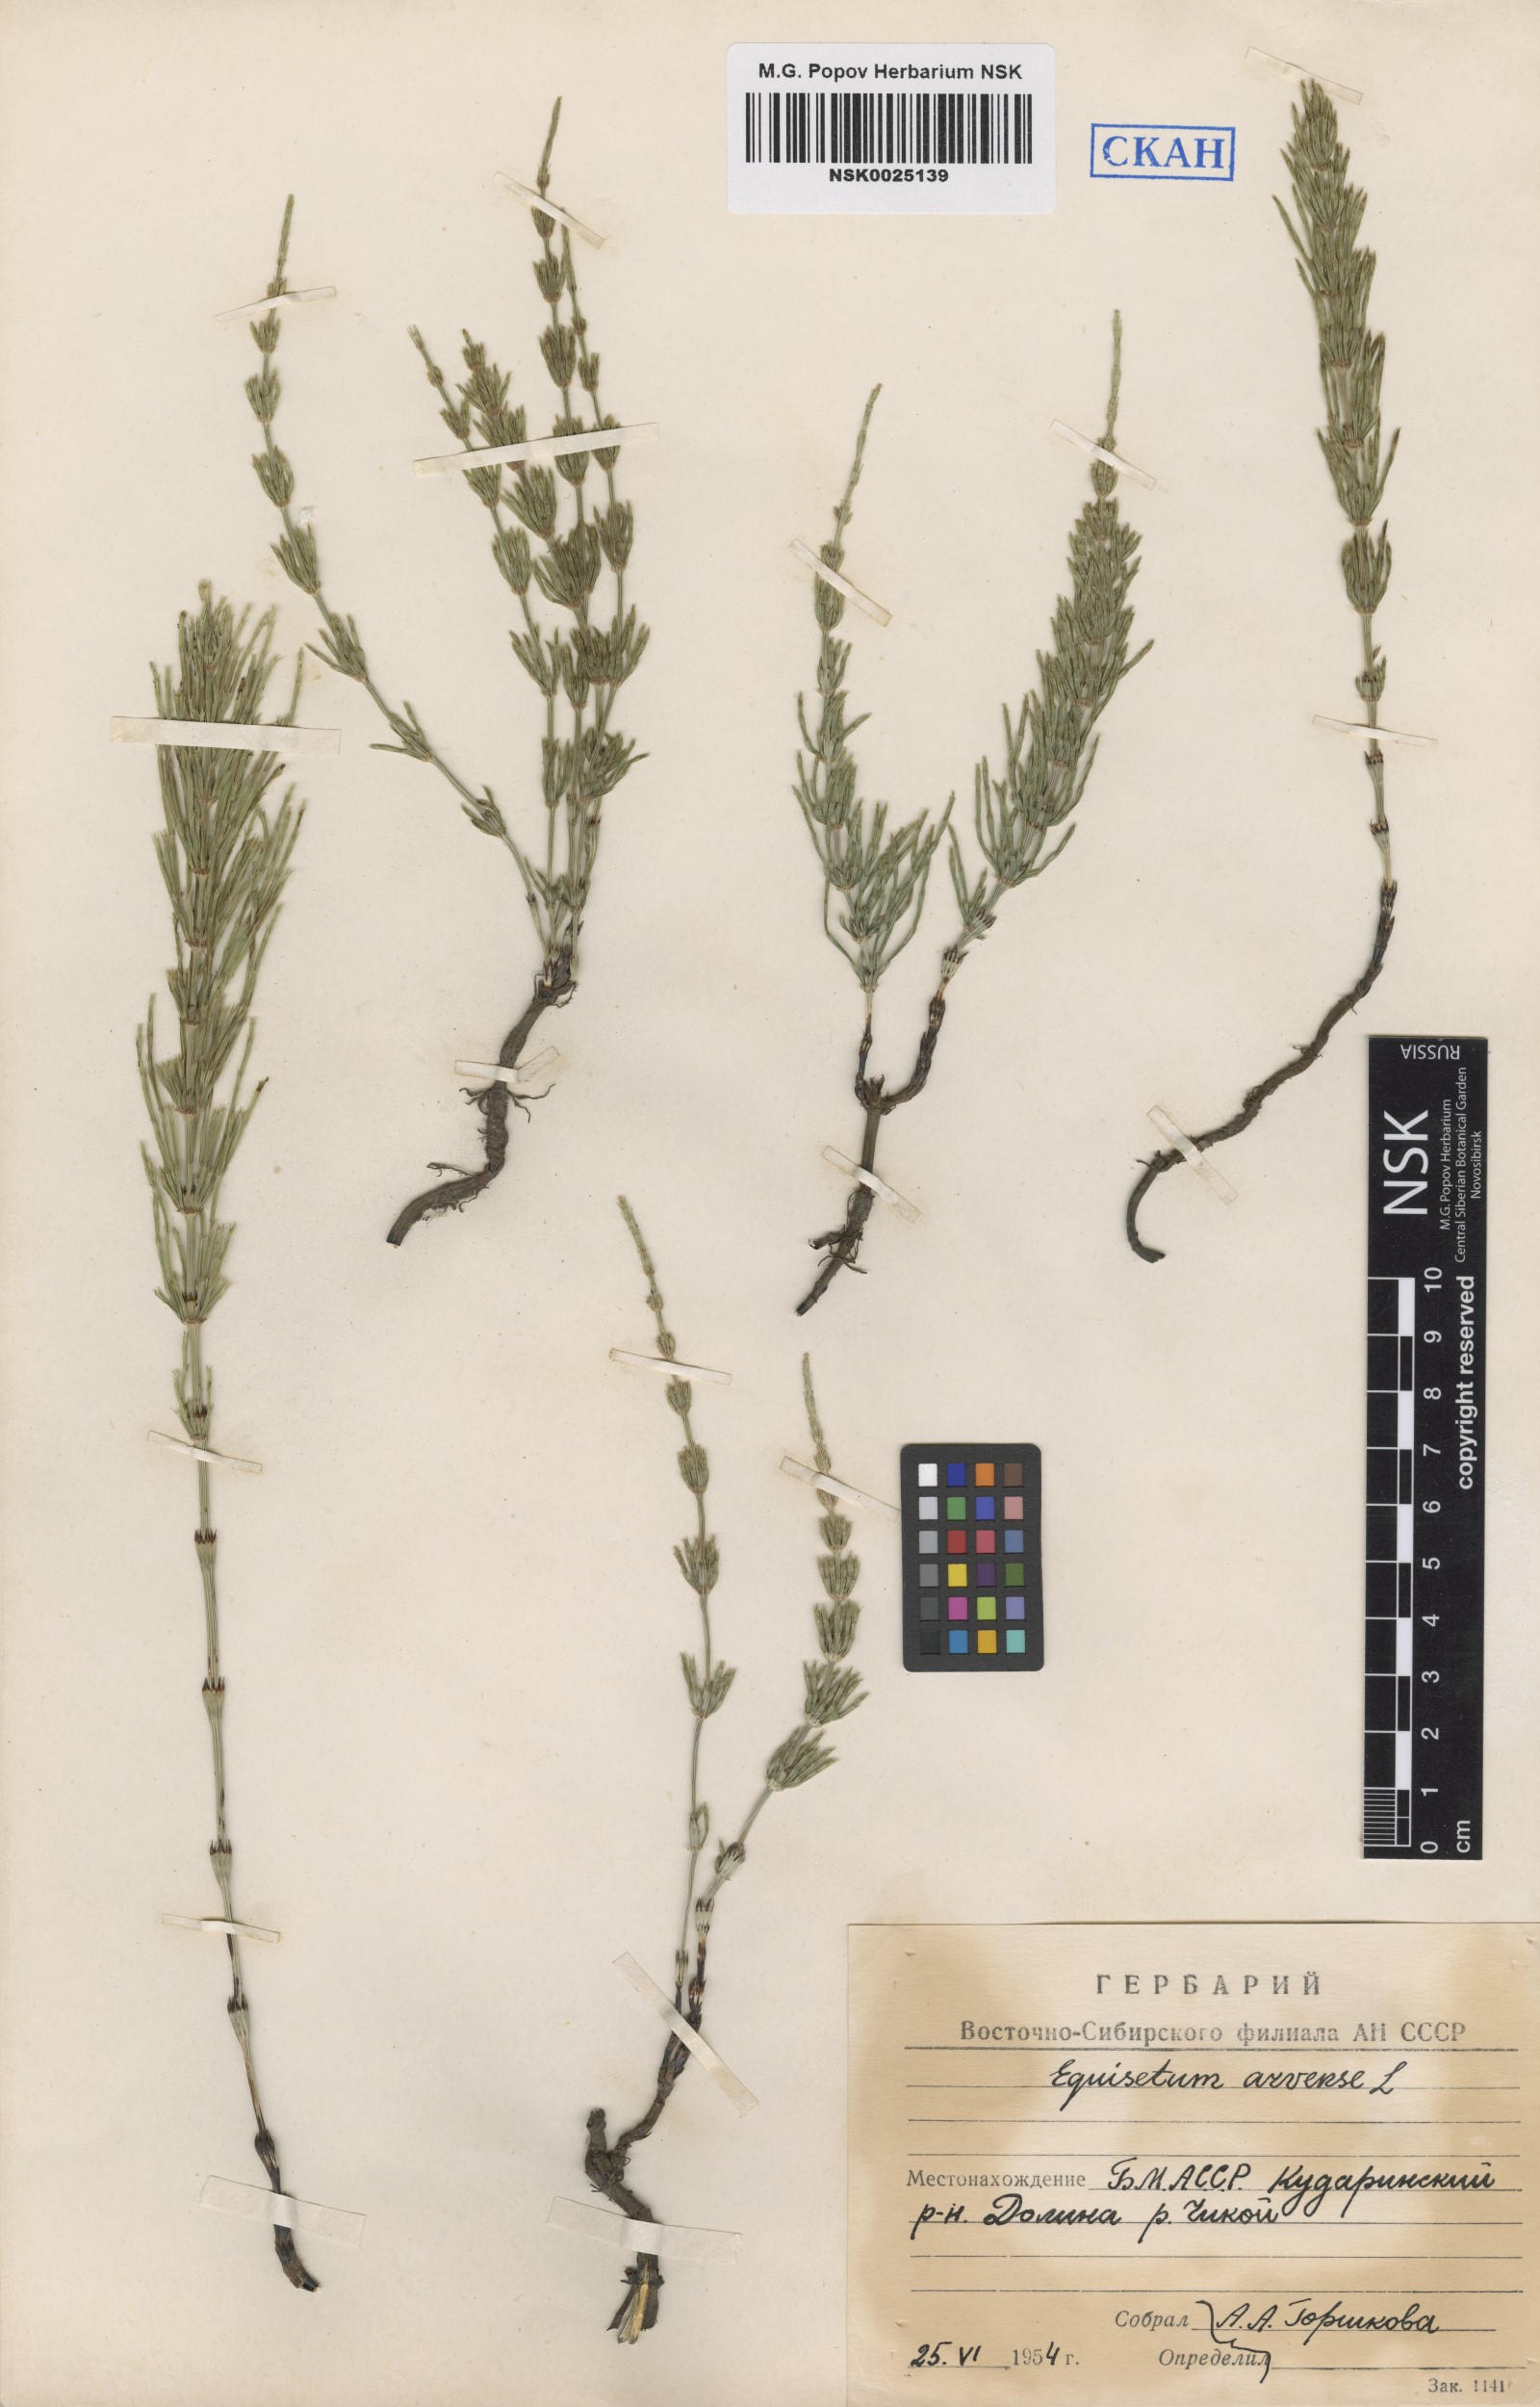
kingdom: Plantae
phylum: Tracheophyta
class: Polypodiopsida
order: Equisetales
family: Equisetaceae
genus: Equisetum
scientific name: Equisetum arvense
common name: Field horsetail
